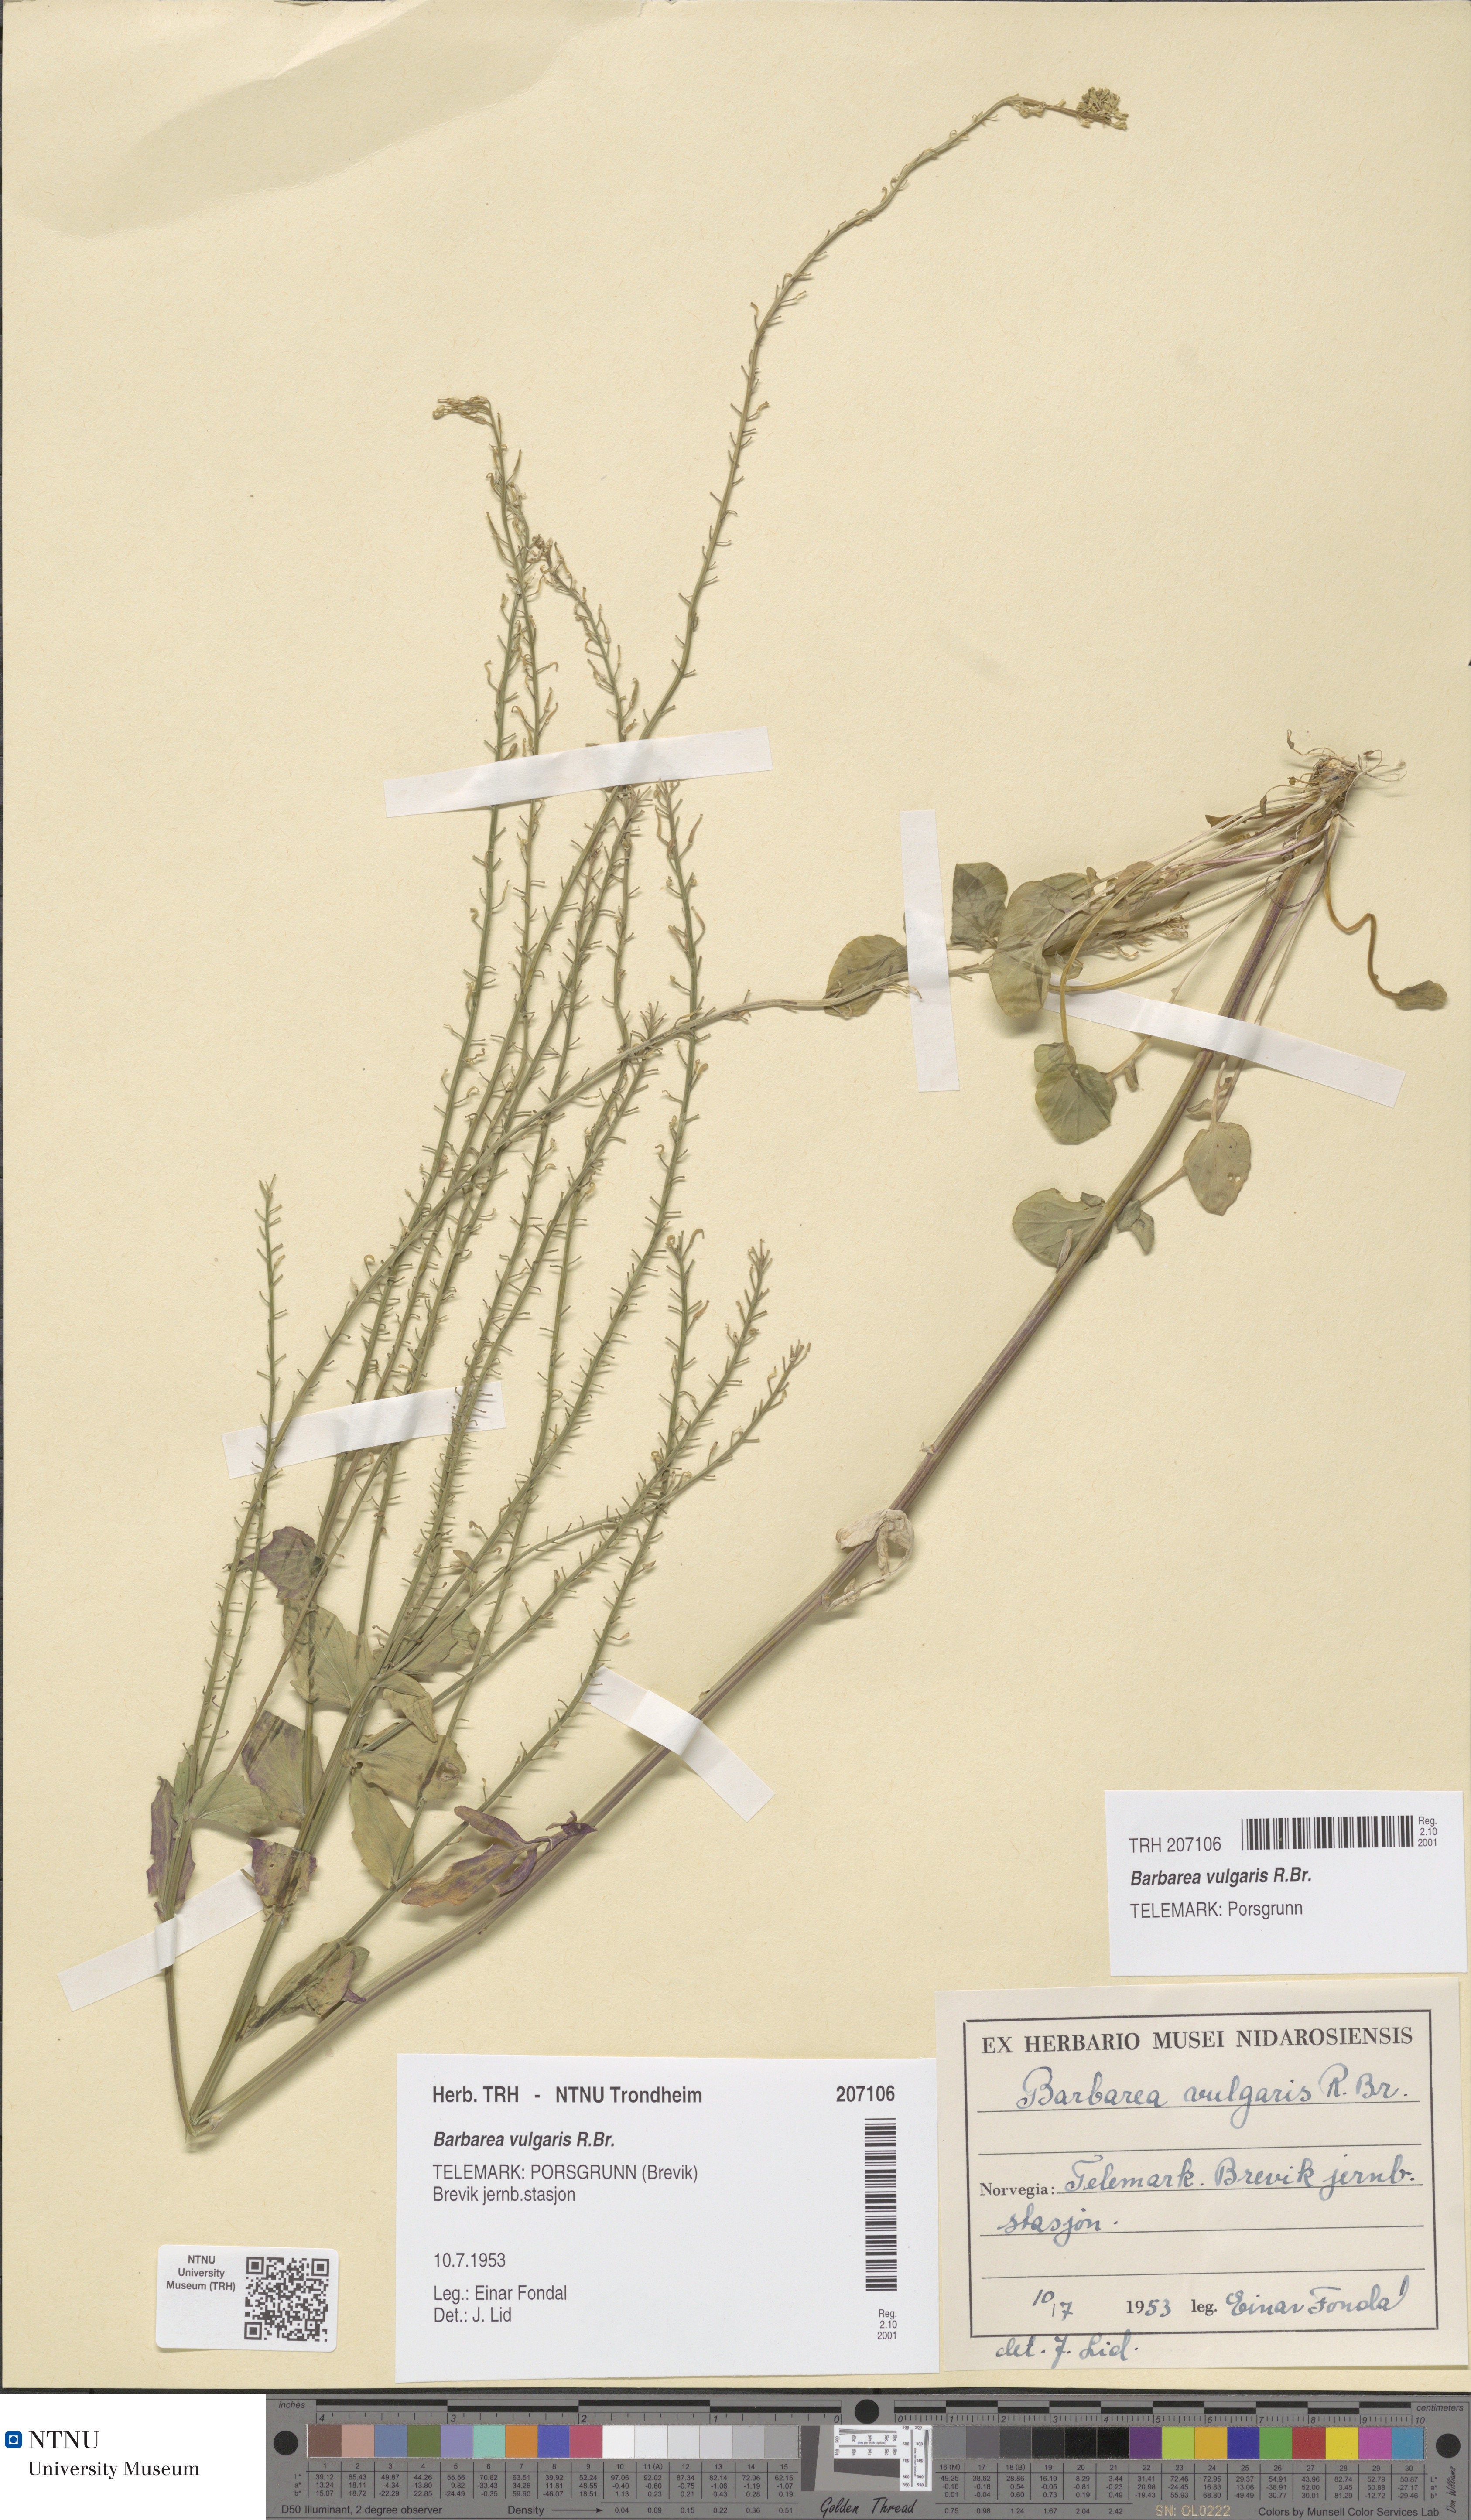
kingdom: Plantae
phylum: Tracheophyta
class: Magnoliopsida
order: Brassicales
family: Brassicaceae
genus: Barbarea
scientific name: Barbarea vulgaris
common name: Cressy-greens
